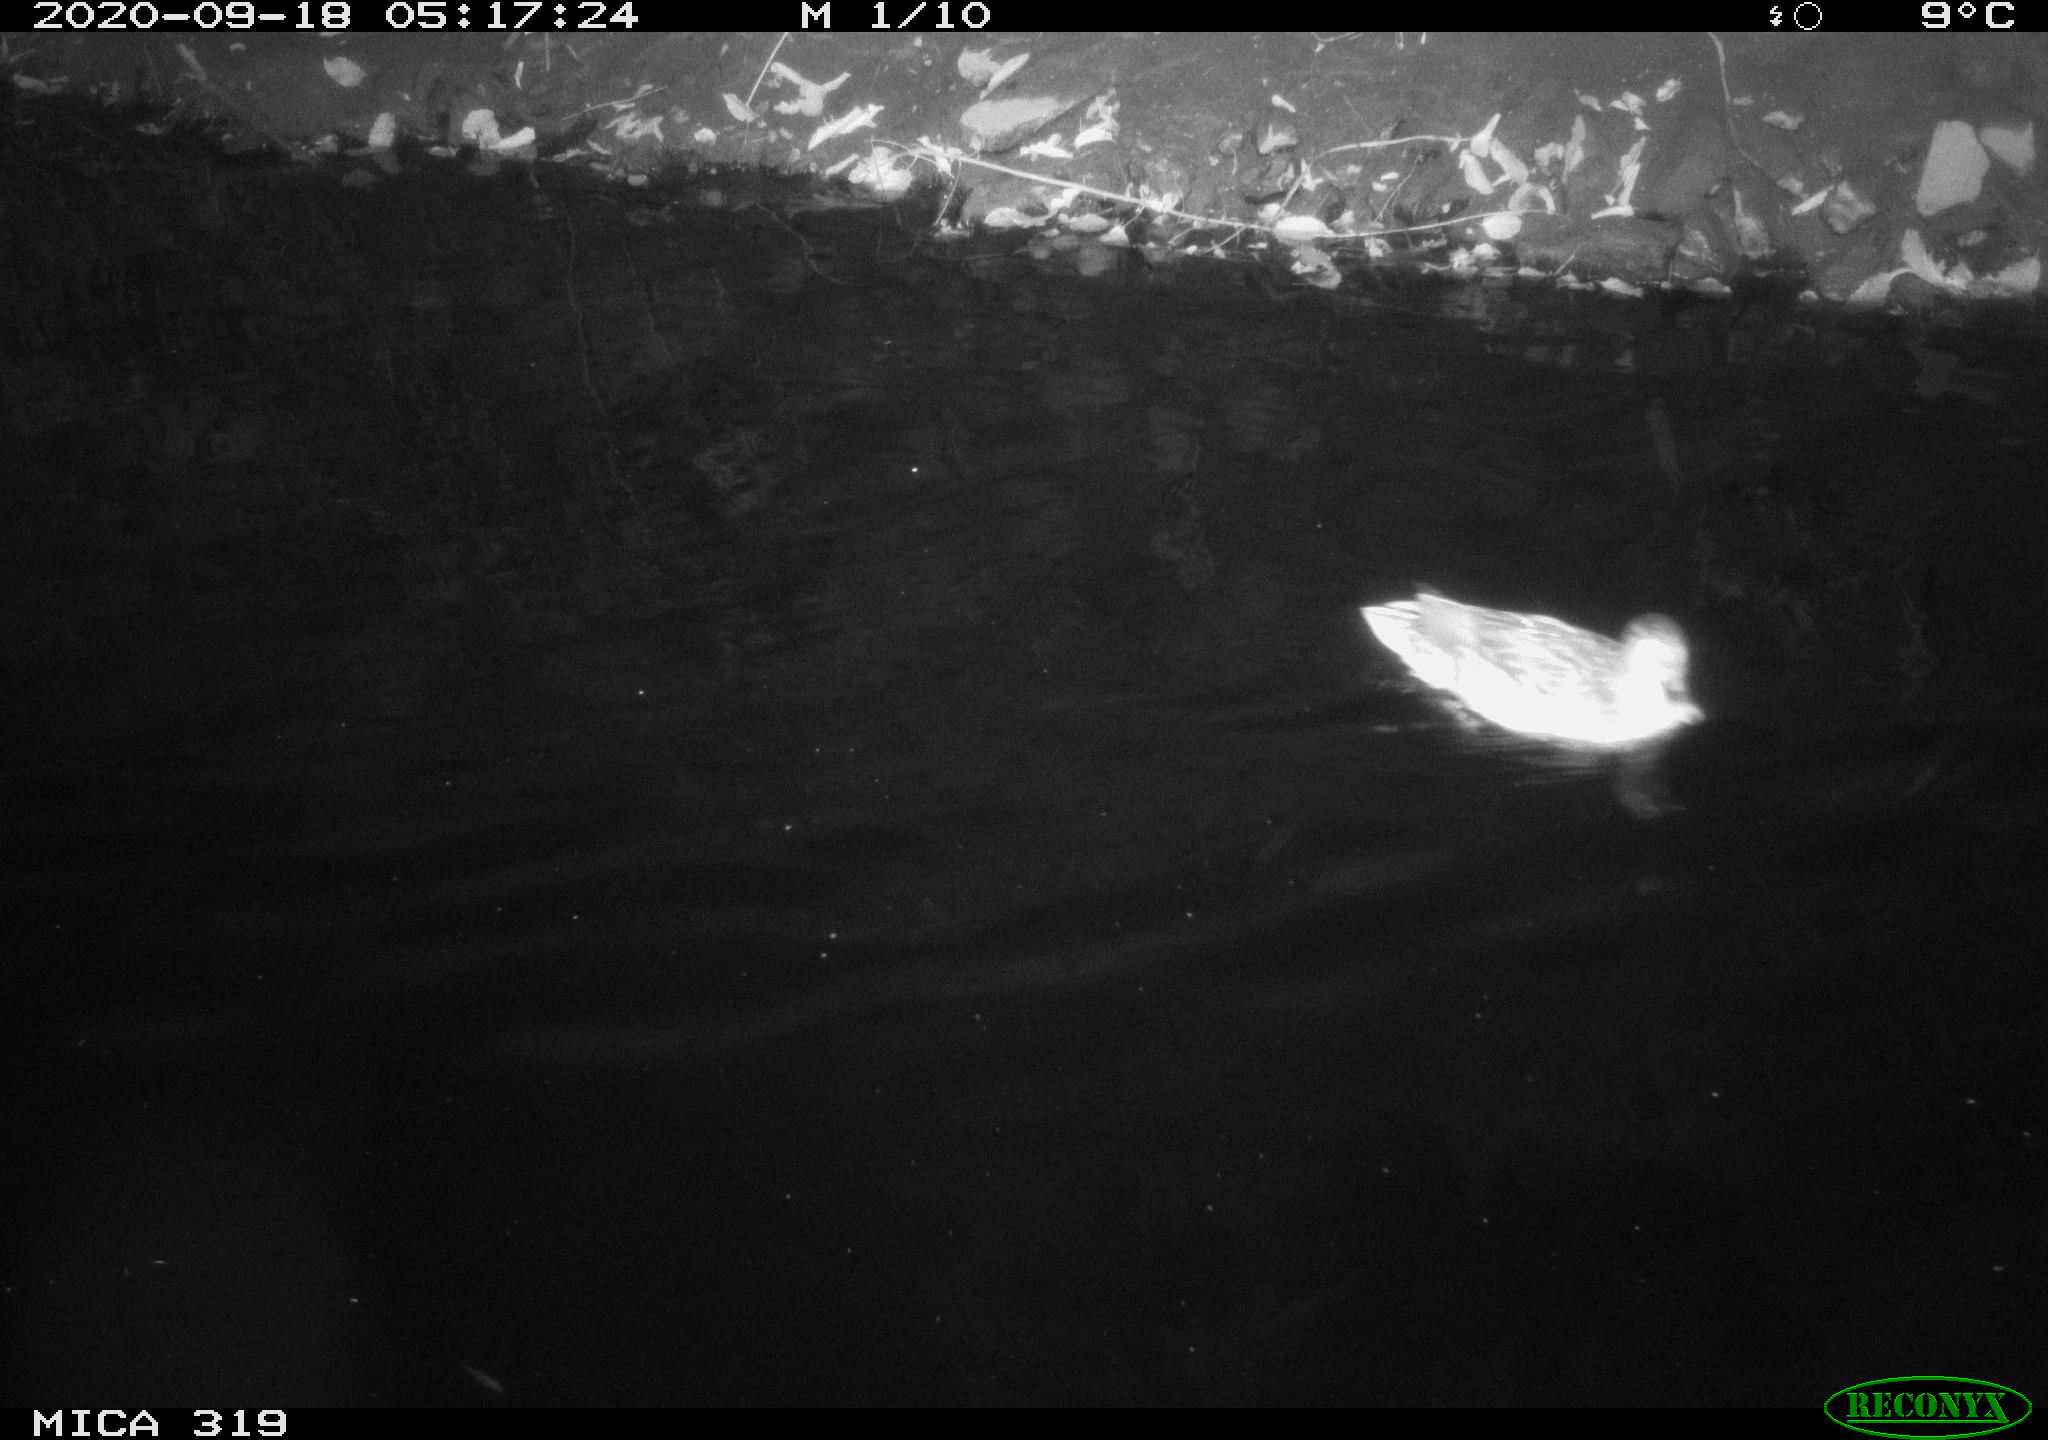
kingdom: Animalia
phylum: Chordata
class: Aves
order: Anseriformes
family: Anatidae
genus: Anas
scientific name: Anas platyrhynchos
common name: Mallard
